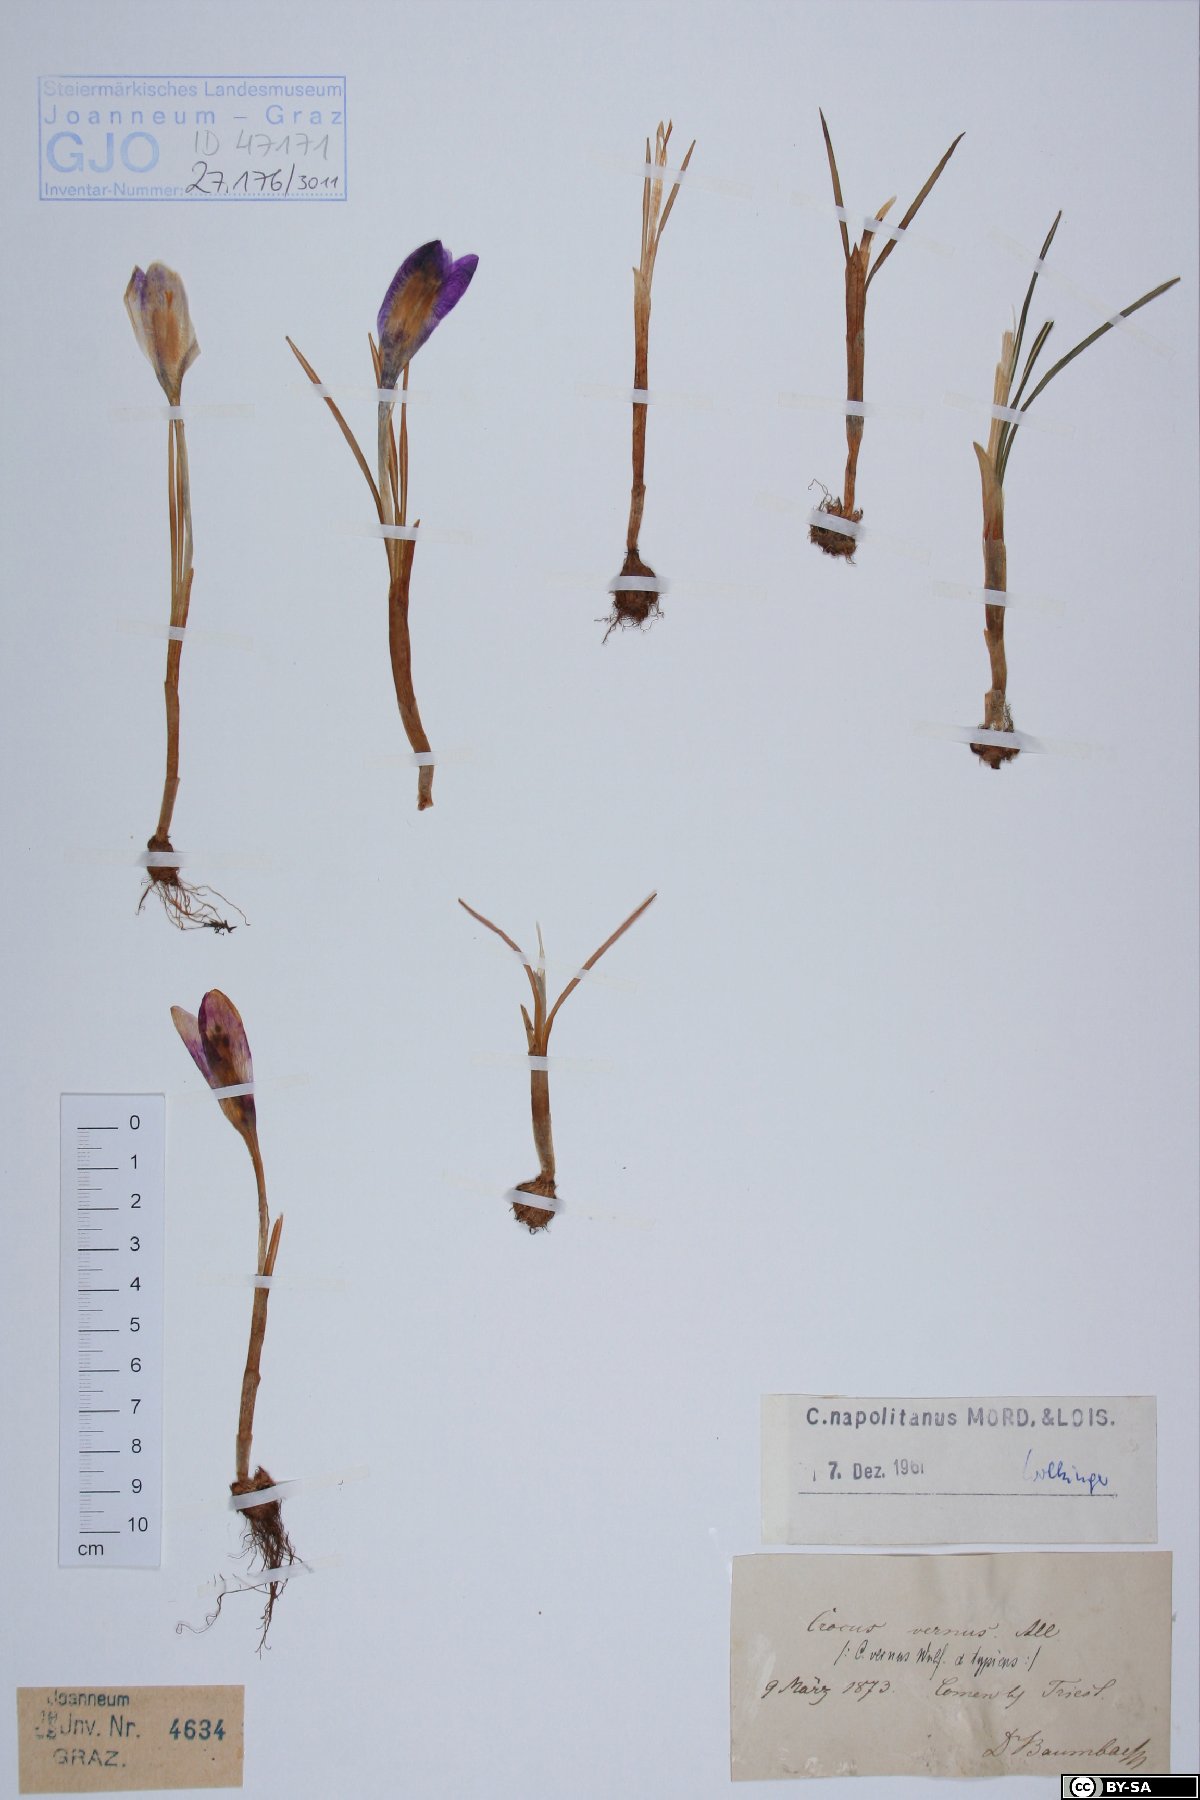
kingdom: Plantae
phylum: Tracheophyta
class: Liliopsida
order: Asparagales
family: Iridaceae
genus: Crocus
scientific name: Crocus vernus
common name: Spring crocus
